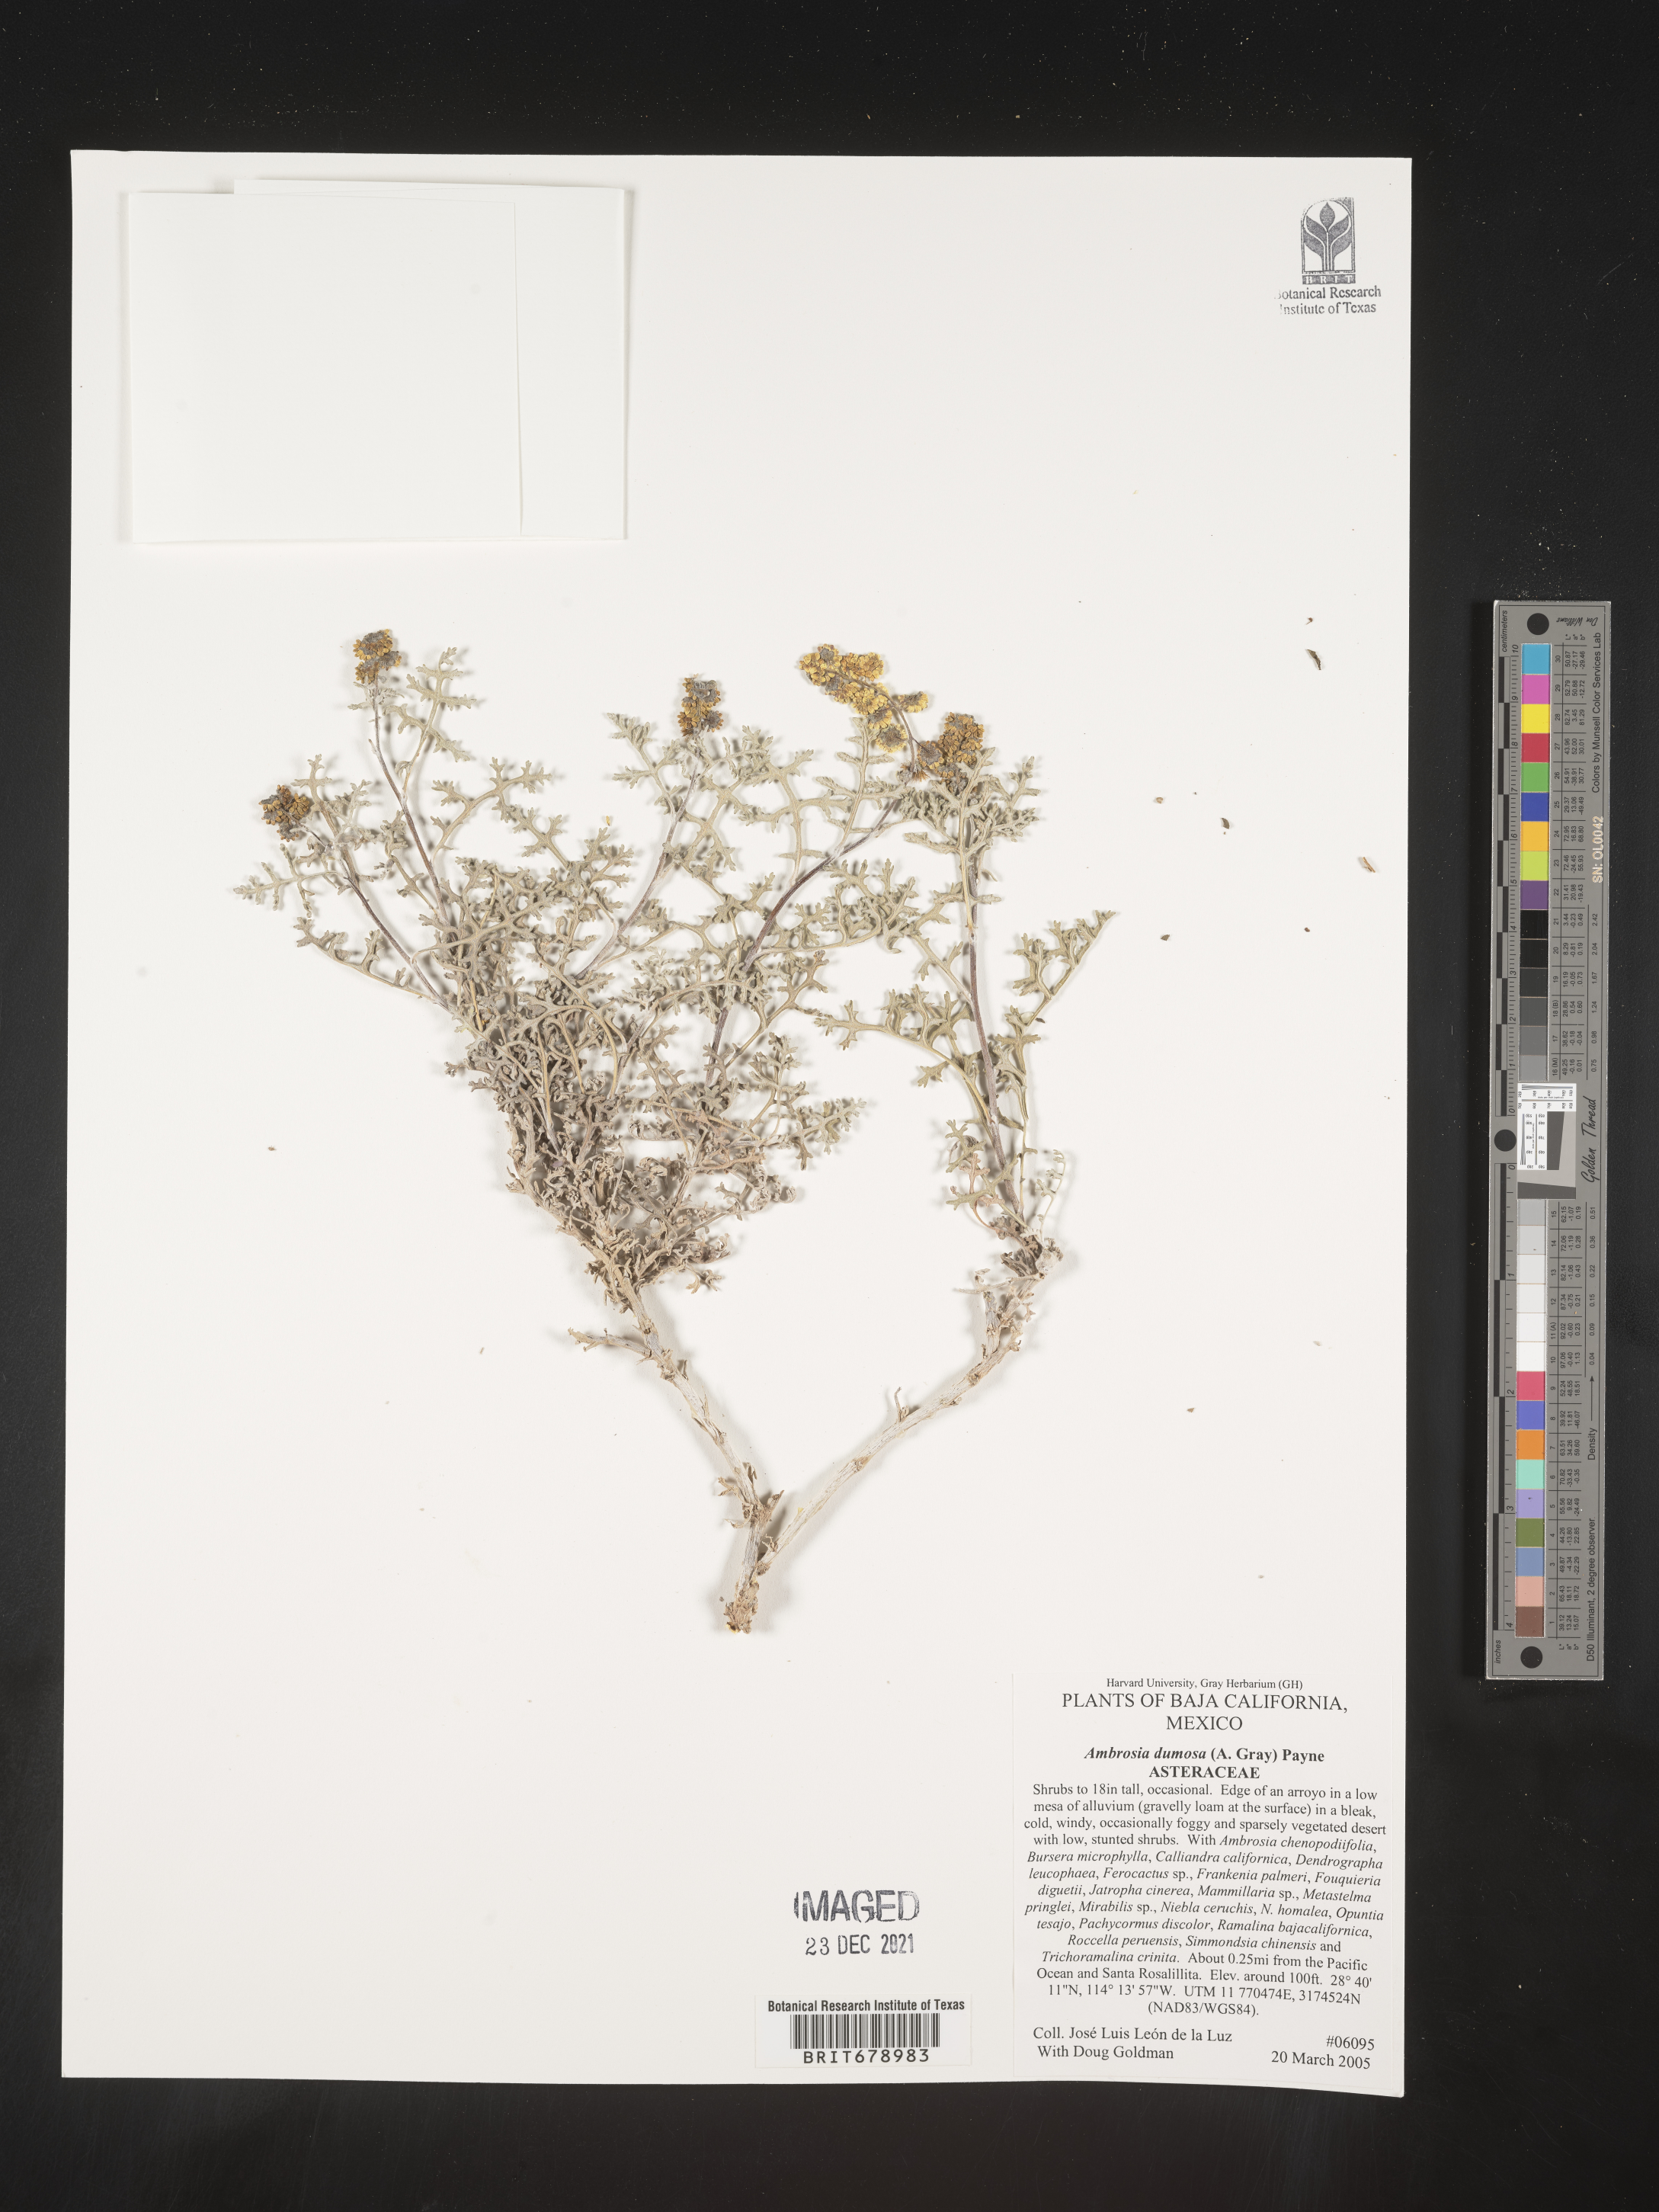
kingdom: Plantae
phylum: Tracheophyta
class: Magnoliopsida
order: Asterales
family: Asteraceae
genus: Ambrosia
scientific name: Ambrosia
